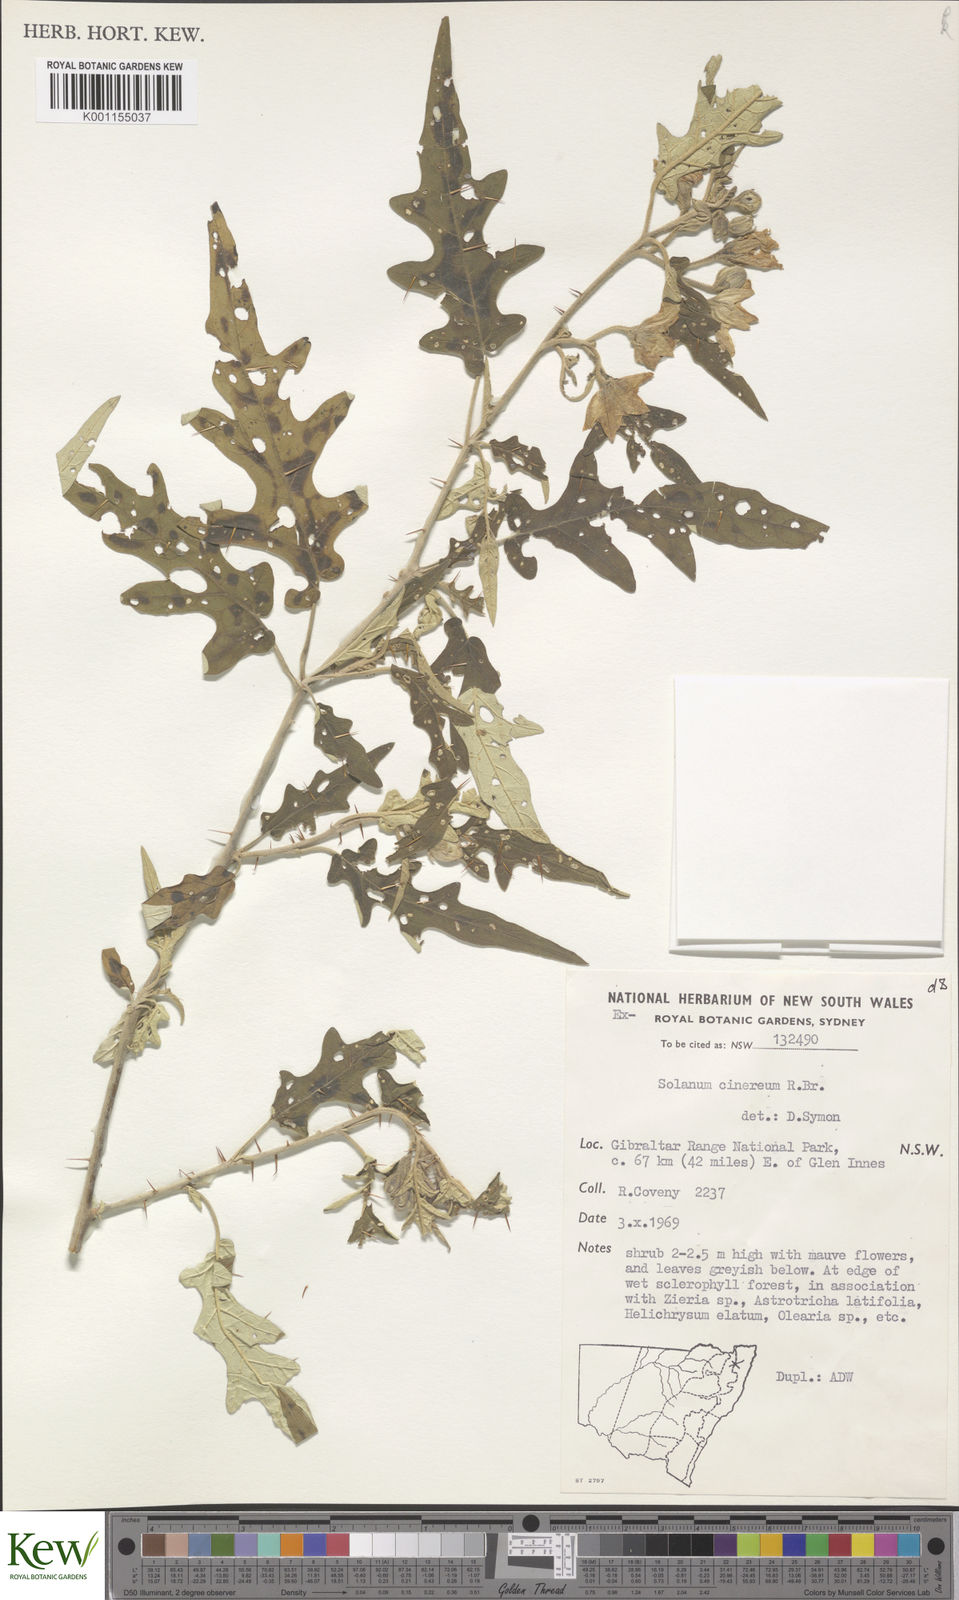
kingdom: Plantae
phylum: Tracheophyta
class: Magnoliopsida
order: Solanales
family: Solanaceae
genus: Solanum
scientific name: Solanum cinereum
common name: Narrawa-bur
